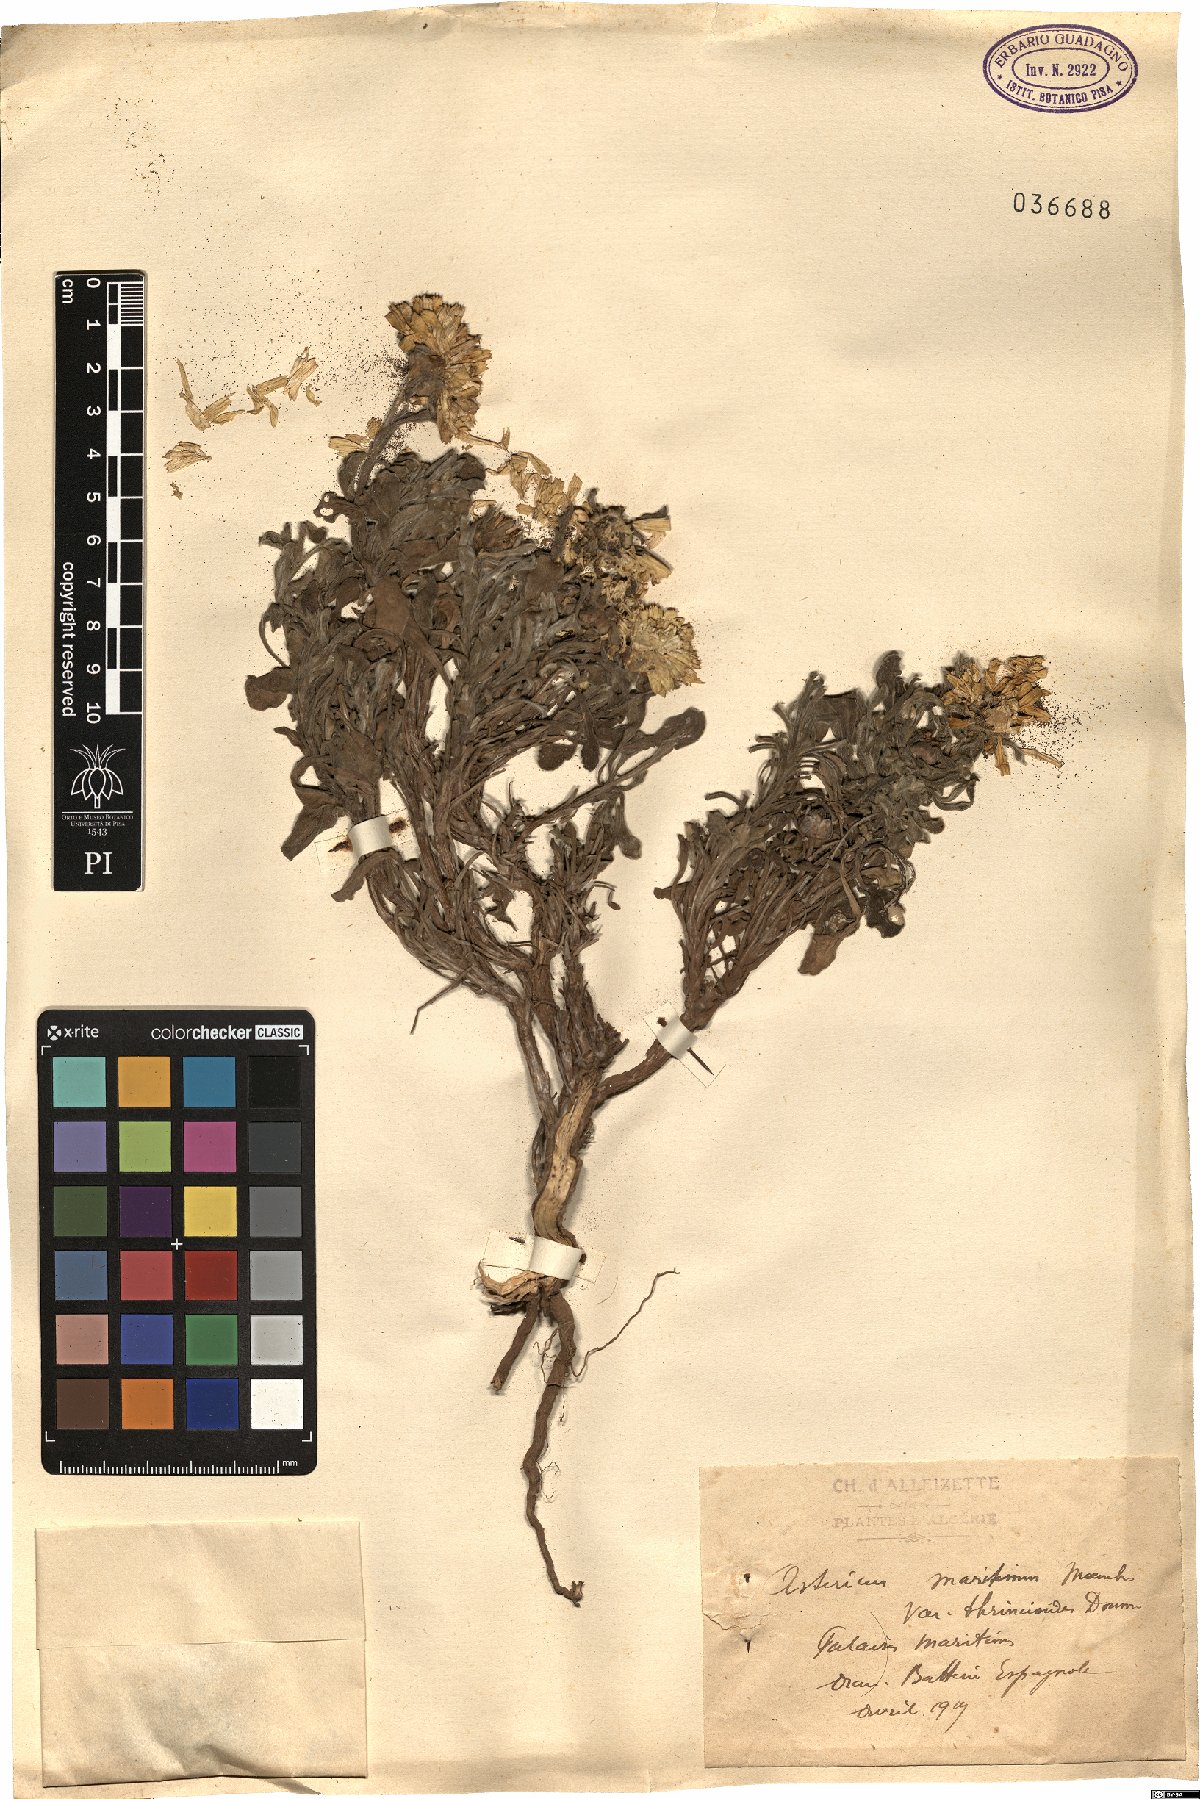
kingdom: Plantae
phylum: Tracheophyta
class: Magnoliopsida
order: Asterales
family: Asteraceae
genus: Pallenis
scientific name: Pallenis maritima
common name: Golden coin daisy
